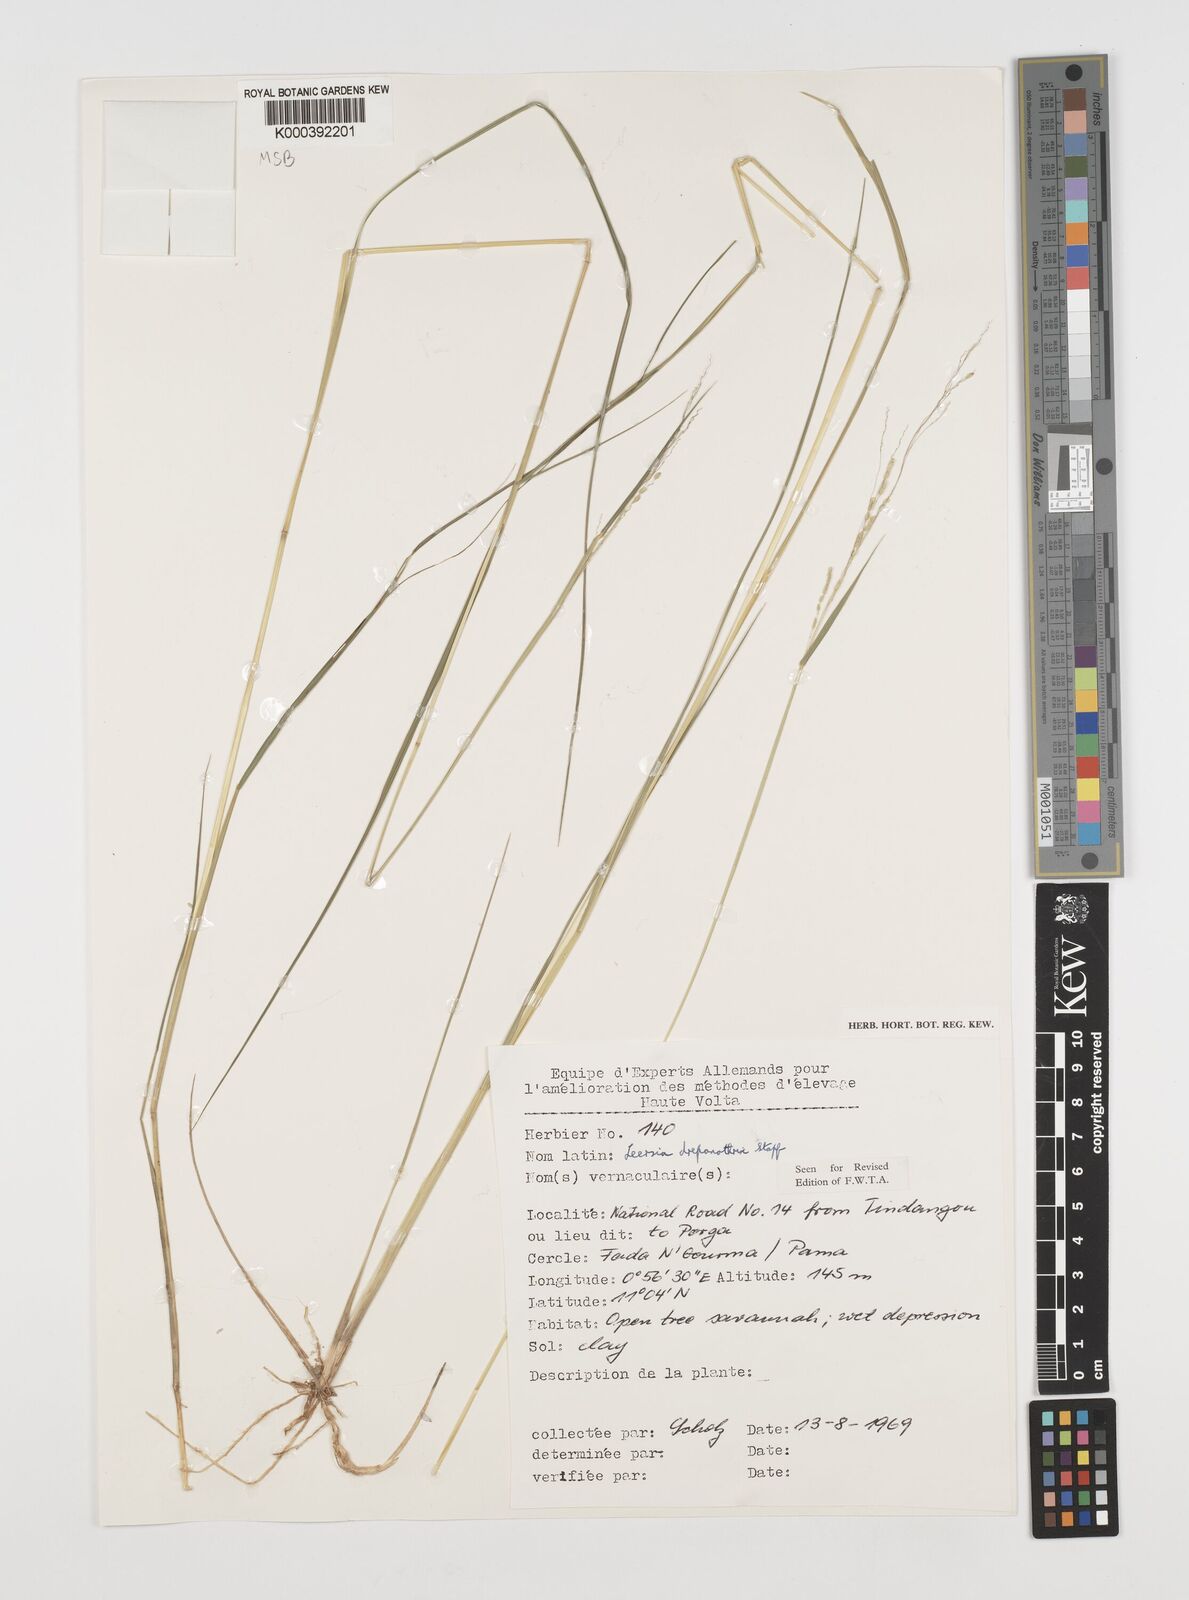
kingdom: Plantae
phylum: Tracheophyta
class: Liliopsida
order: Poales
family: Poaceae
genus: Leersia
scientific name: Leersia drepanothrix
